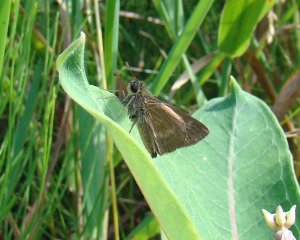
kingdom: Animalia
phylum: Arthropoda
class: Insecta
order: Lepidoptera
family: Hesperiidae
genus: Polites
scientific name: Polites egeremet
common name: Northern Broken-Dash
